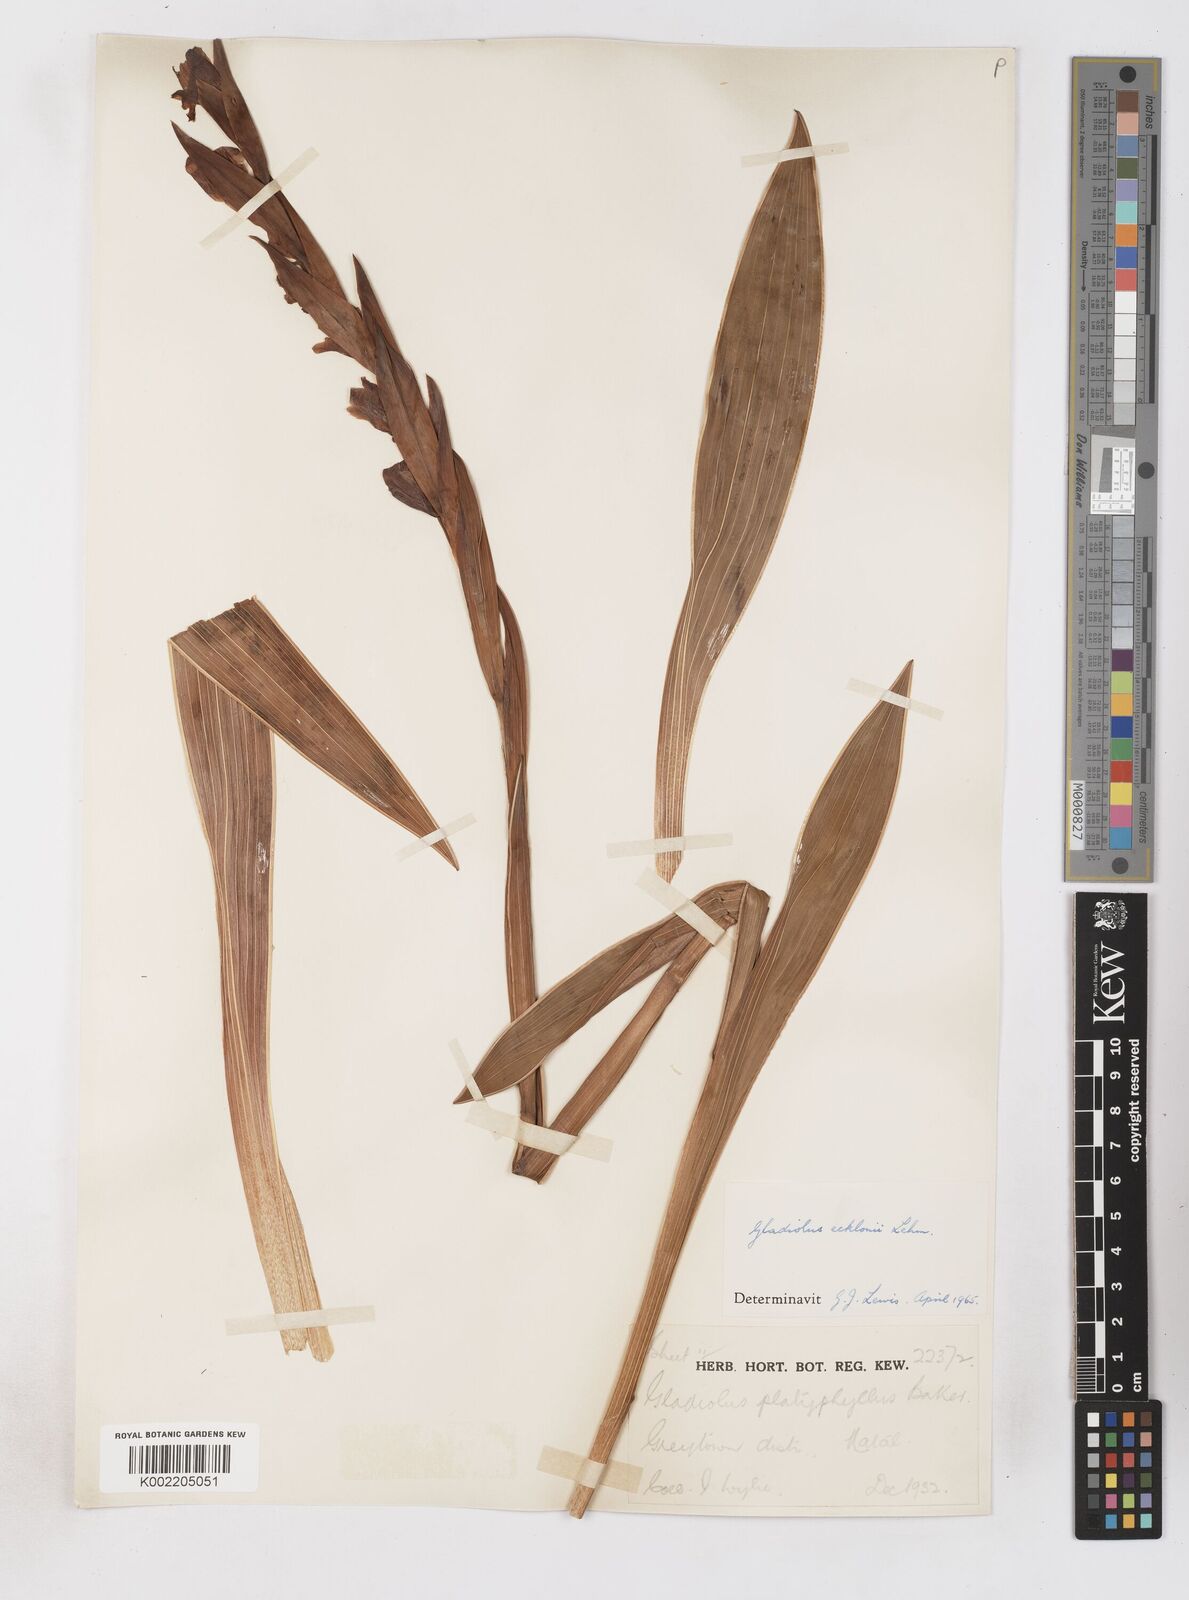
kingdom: Plantae
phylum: Tracheophyta
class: Liliopsida
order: Asparagales
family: Iridaceae
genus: Gladiolus
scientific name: Gladiolus ecklonii
